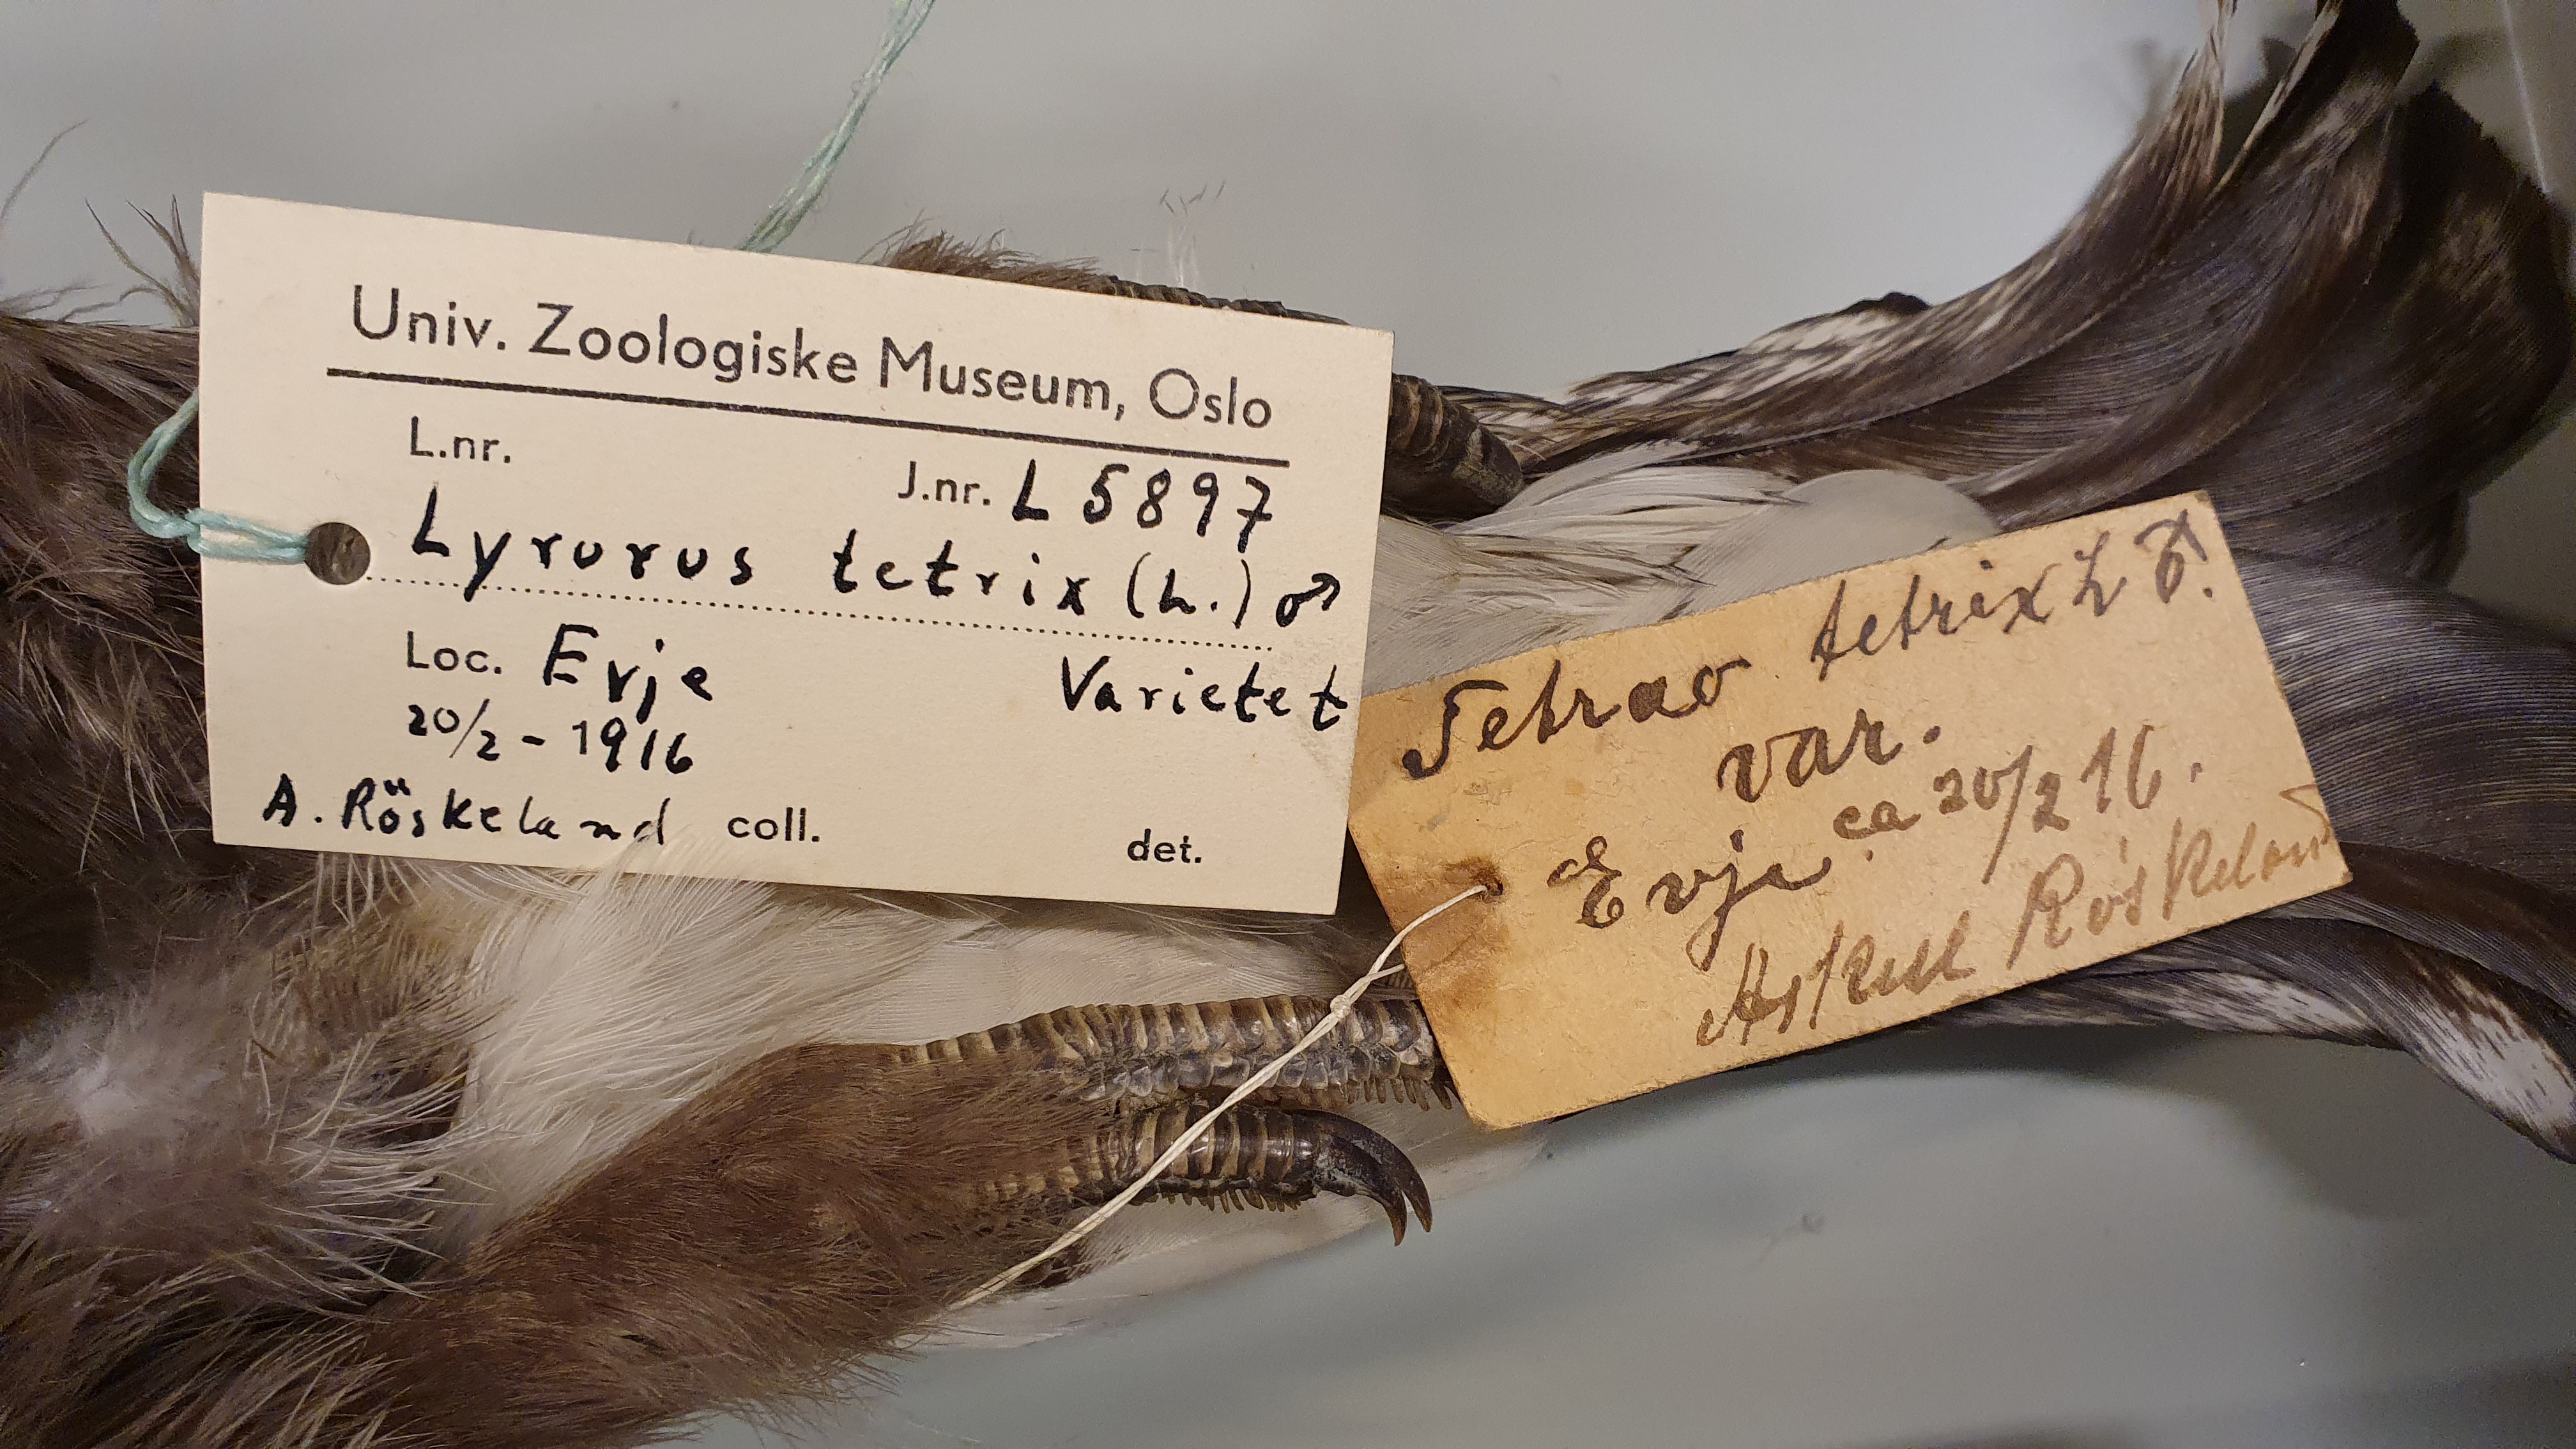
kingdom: Animalia
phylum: Chordata
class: Aves
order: Galliformes
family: Phasianidae
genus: Lyrurus
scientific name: Lyrurus tetrix
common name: Black grouse
